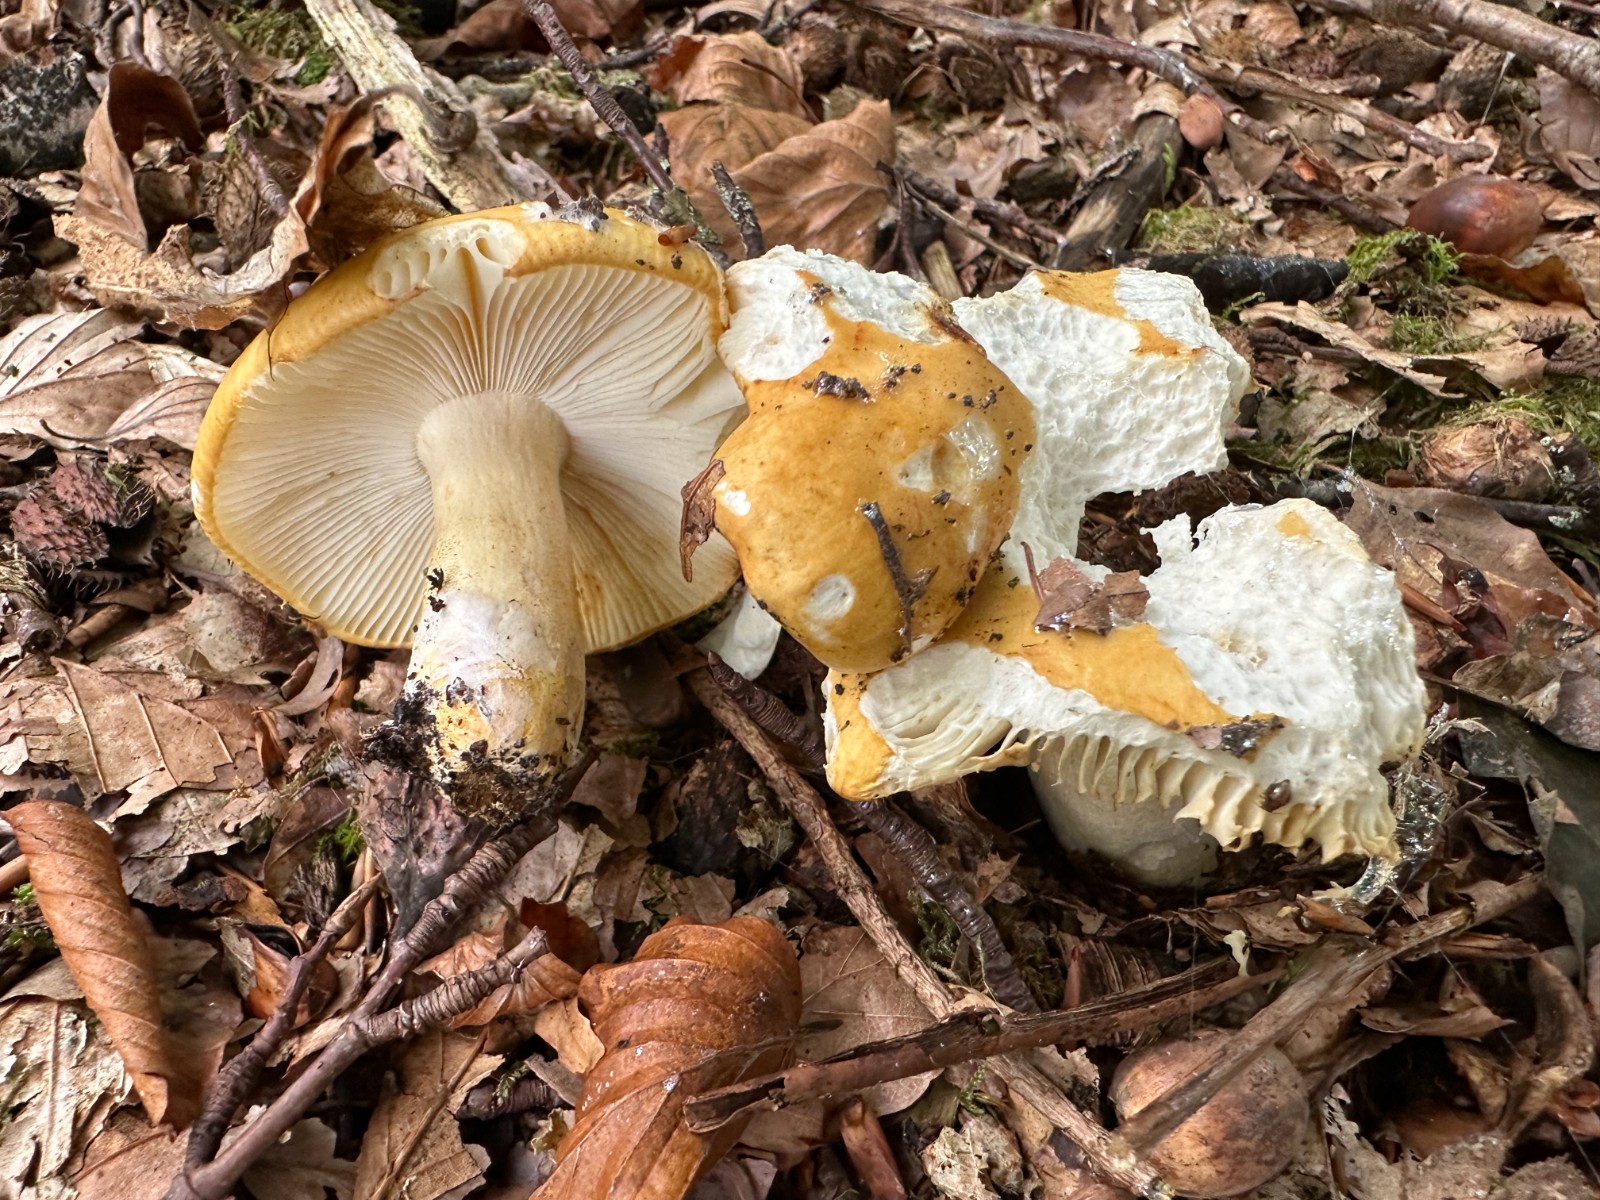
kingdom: Fungi
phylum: Basidiomycota
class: Agaricomycetes
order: Russulales
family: Russulaceae
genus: Russula
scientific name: Russula ochroleuca
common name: okkergul skørhat
